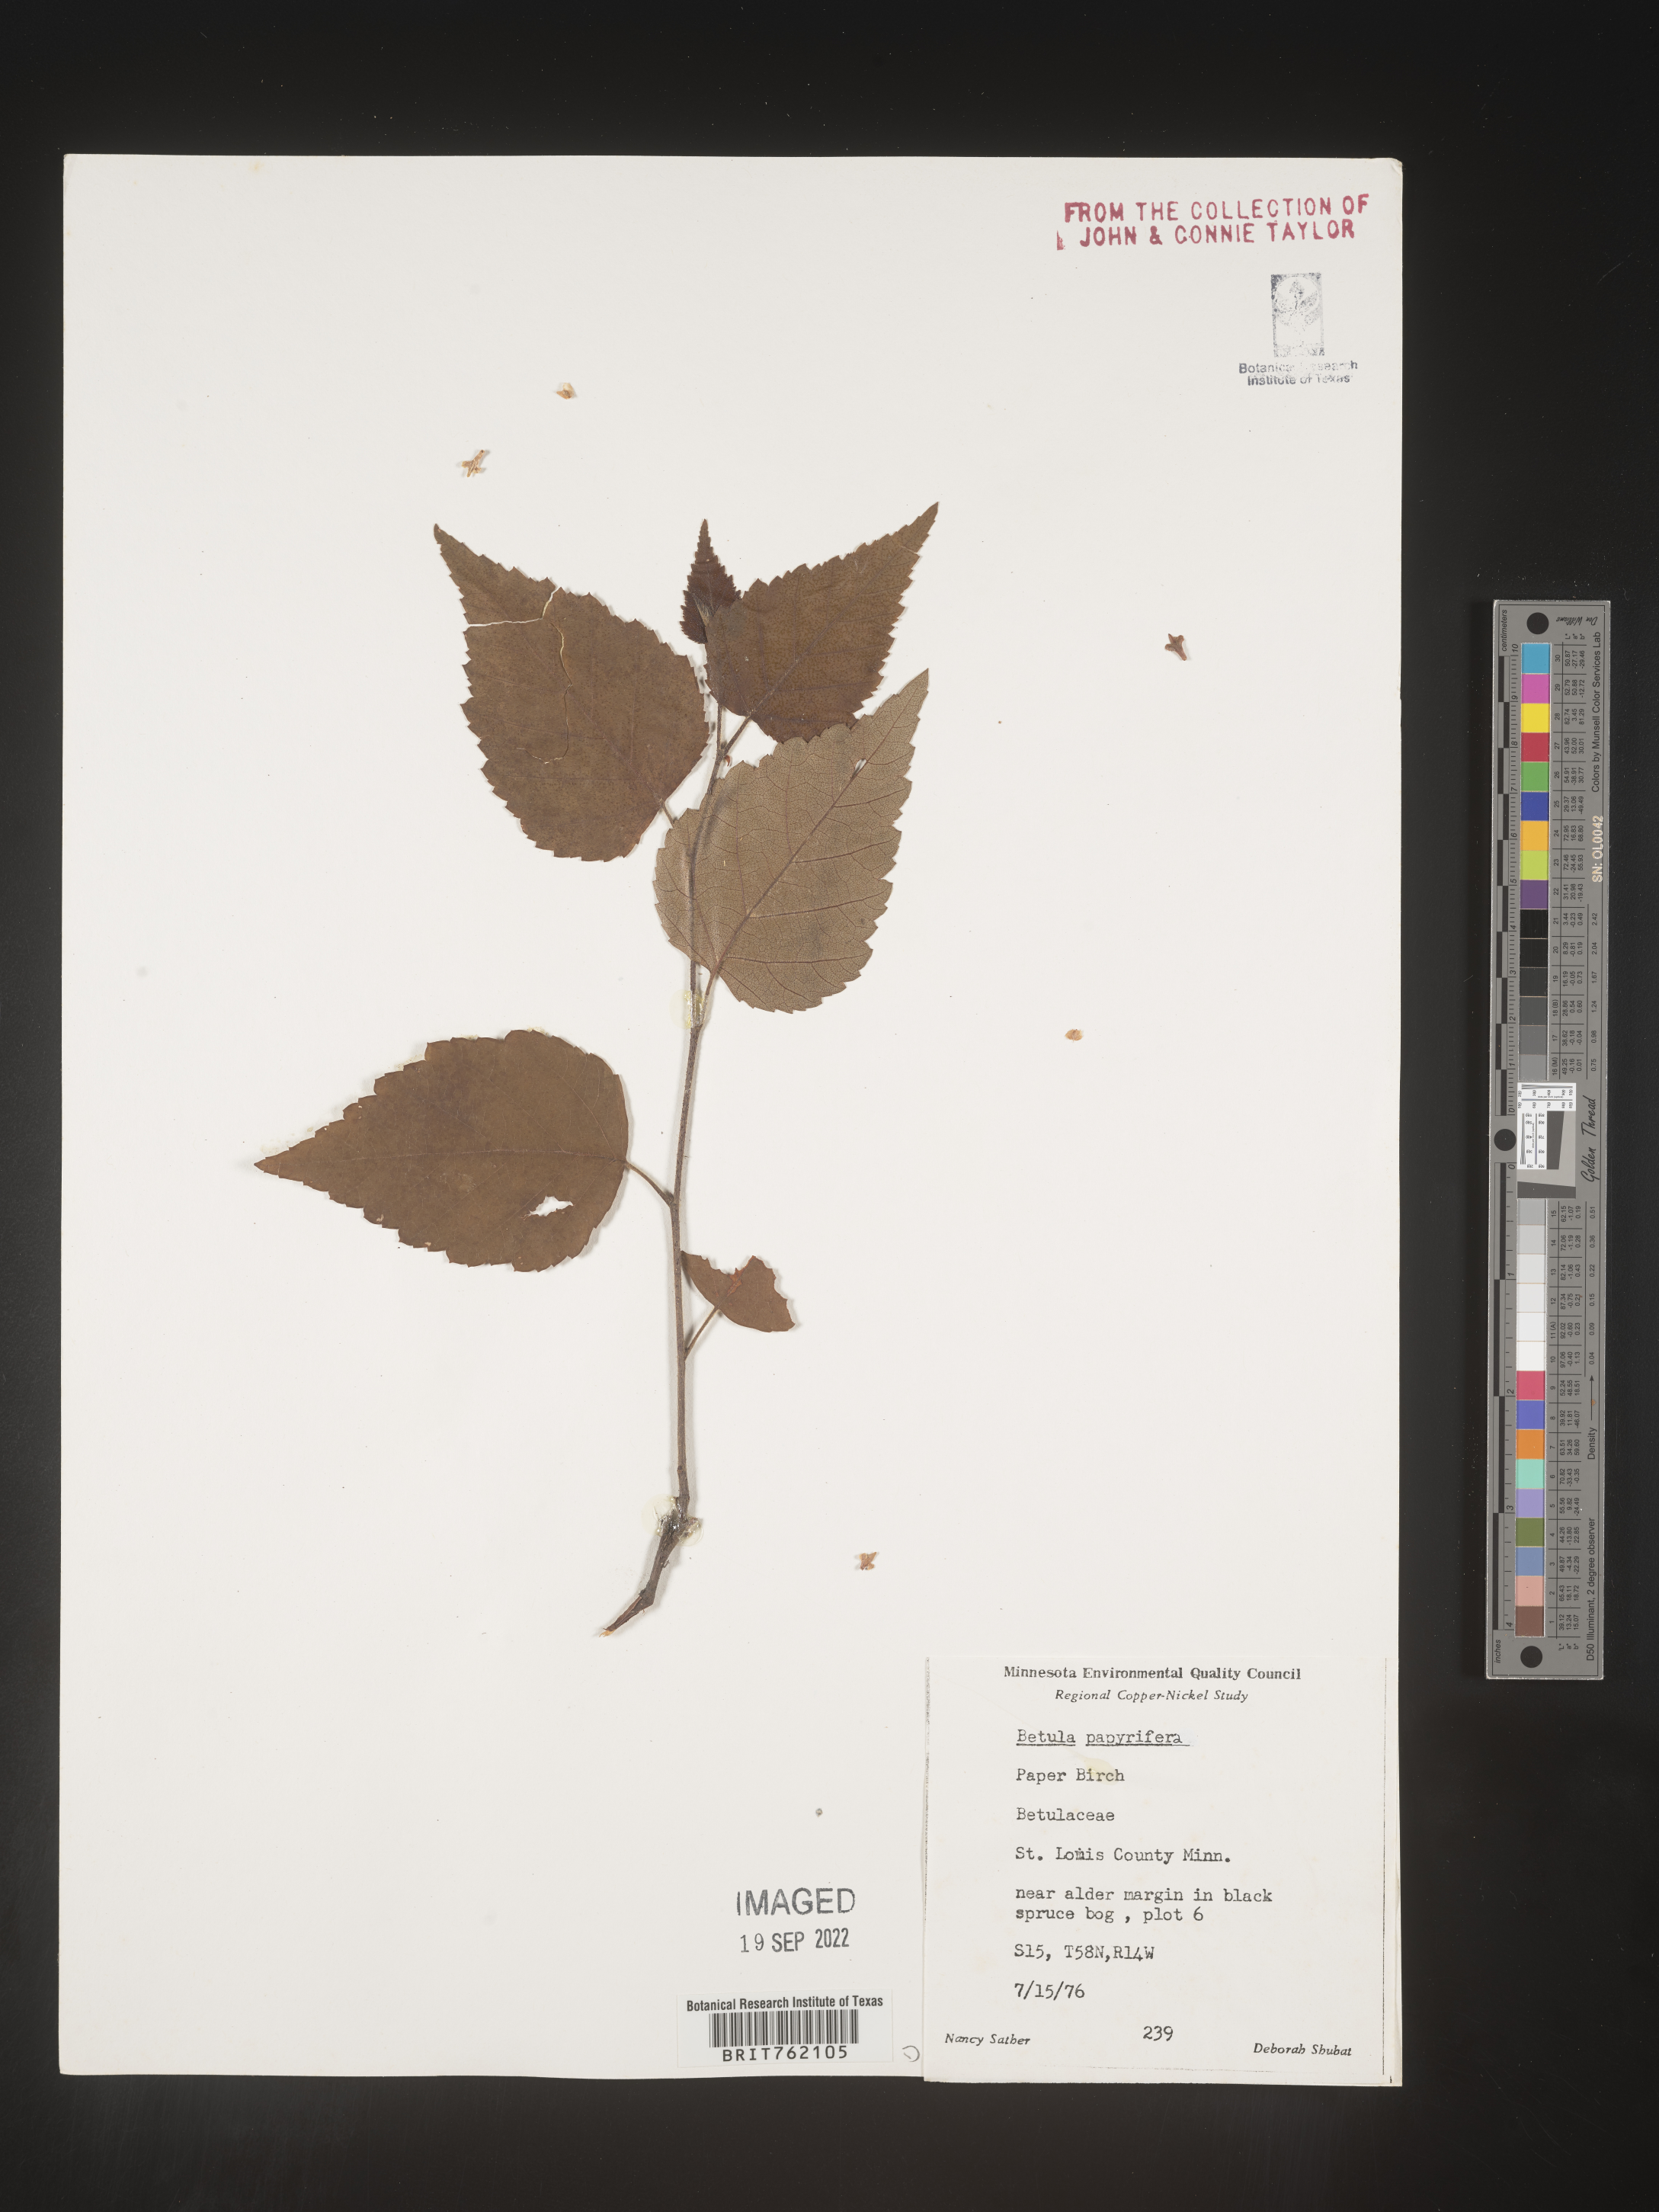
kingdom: Plantae
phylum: Tracheophyta
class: Magnoliopsida
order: Fagales
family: Betulaceae
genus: Betula
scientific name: Betula papyrifera
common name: Paper birch
